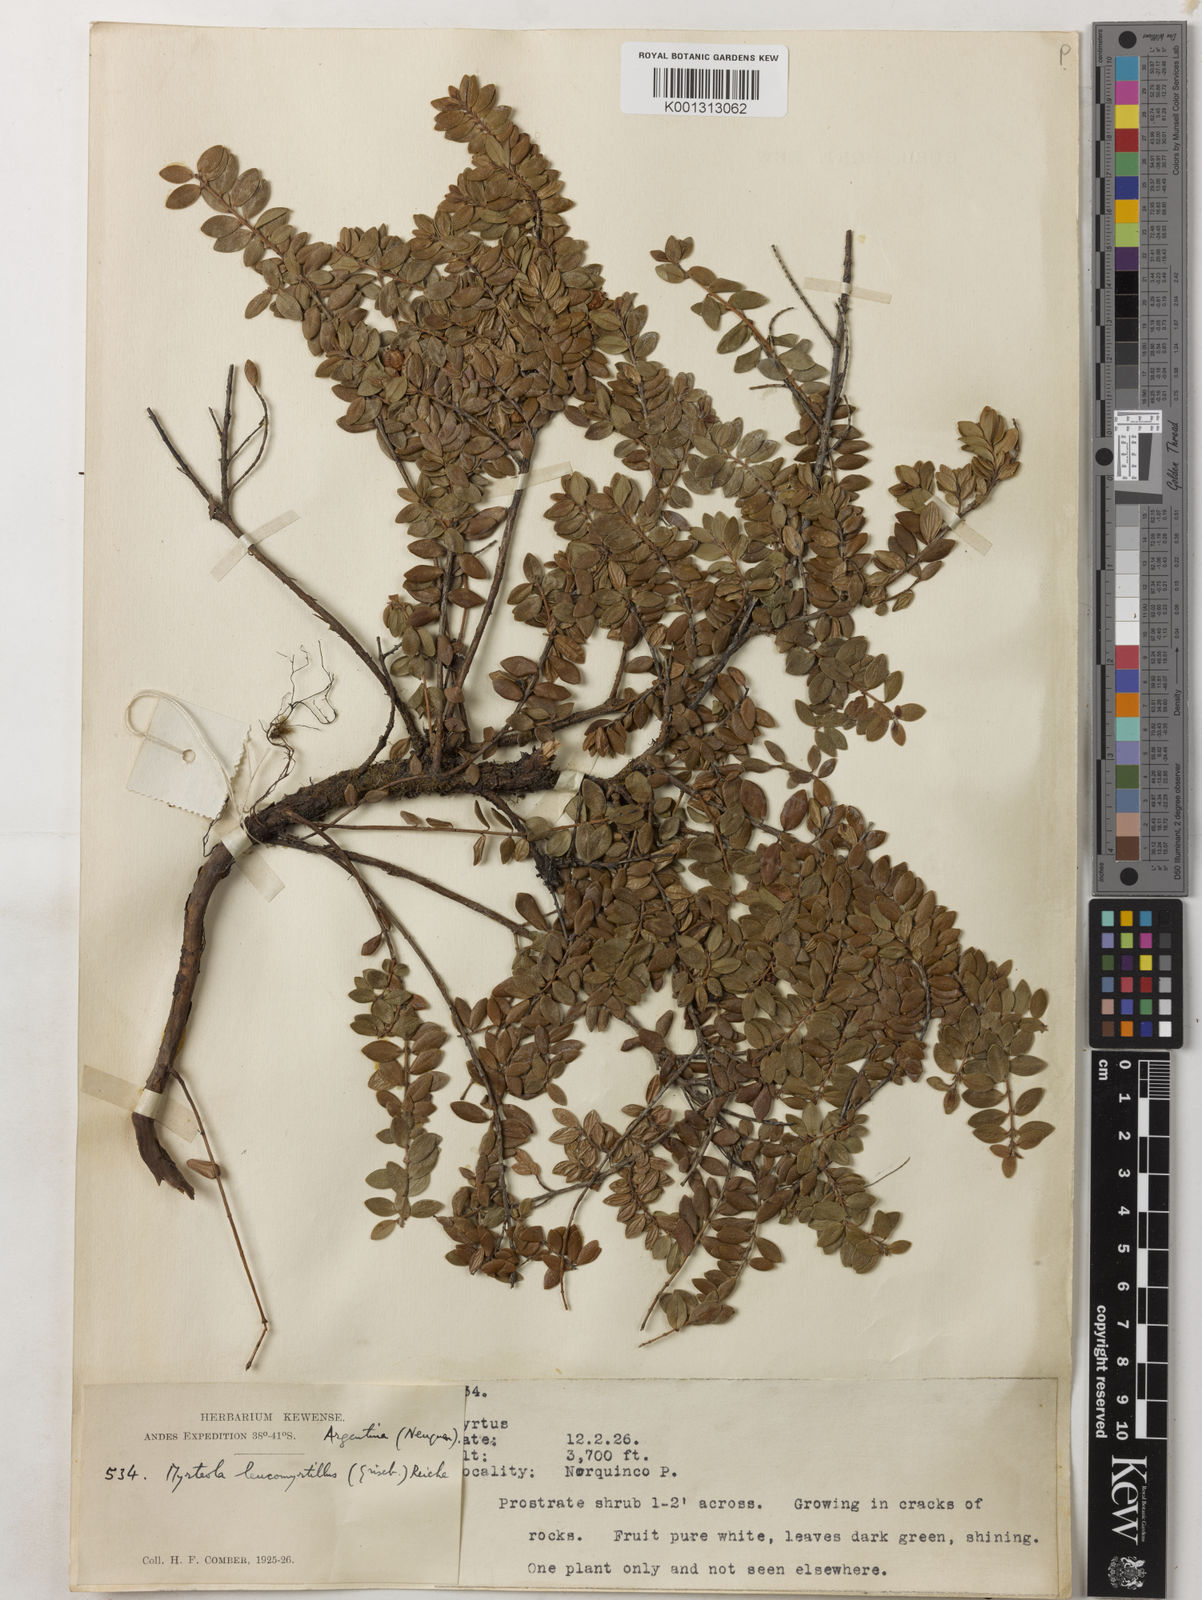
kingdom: Plantae
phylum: Tracheophyta
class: Magnoliopsida
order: Myrtales
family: Myrtaceae
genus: Myrteola
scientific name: Myrteola nummularia
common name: Cranberry-myrtle
